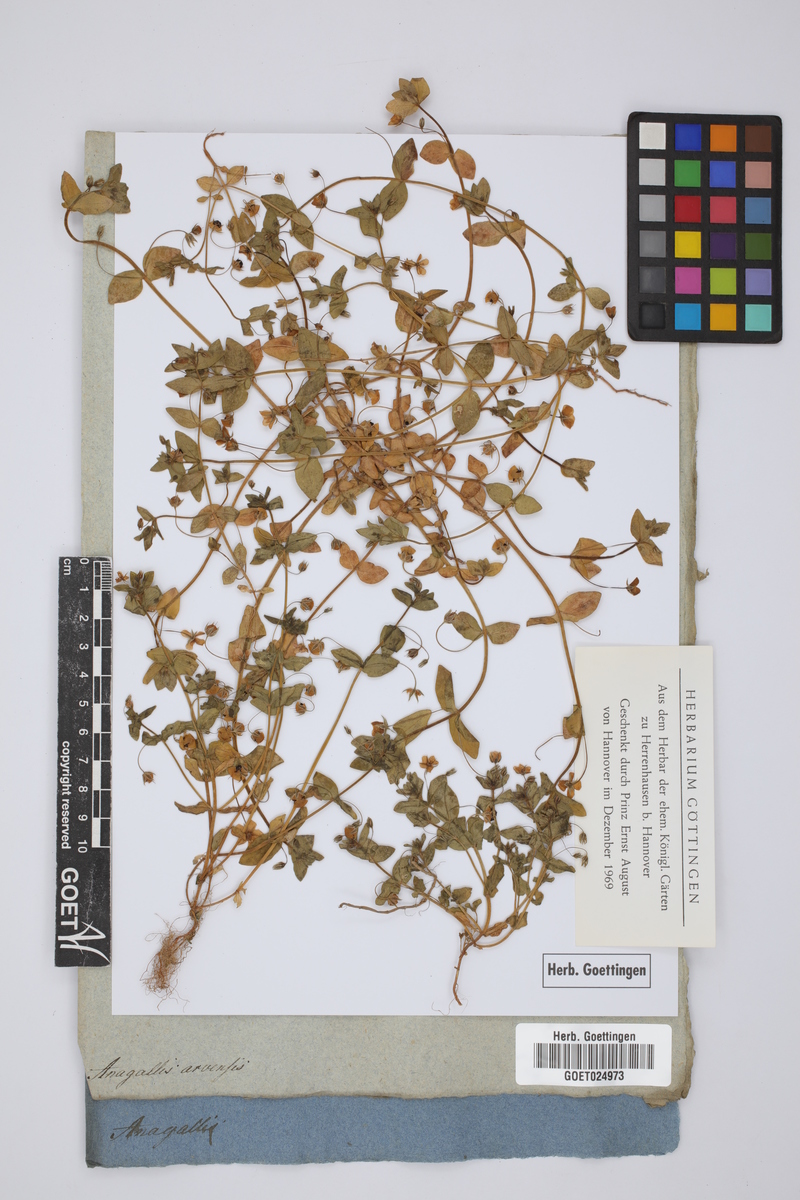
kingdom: Plantae
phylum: Tracheophyta
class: Magnoliopsida
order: Ericales
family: Primulaceae
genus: Lysimachia
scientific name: Lysimachia arvensis
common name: Scarlet pimpernel
